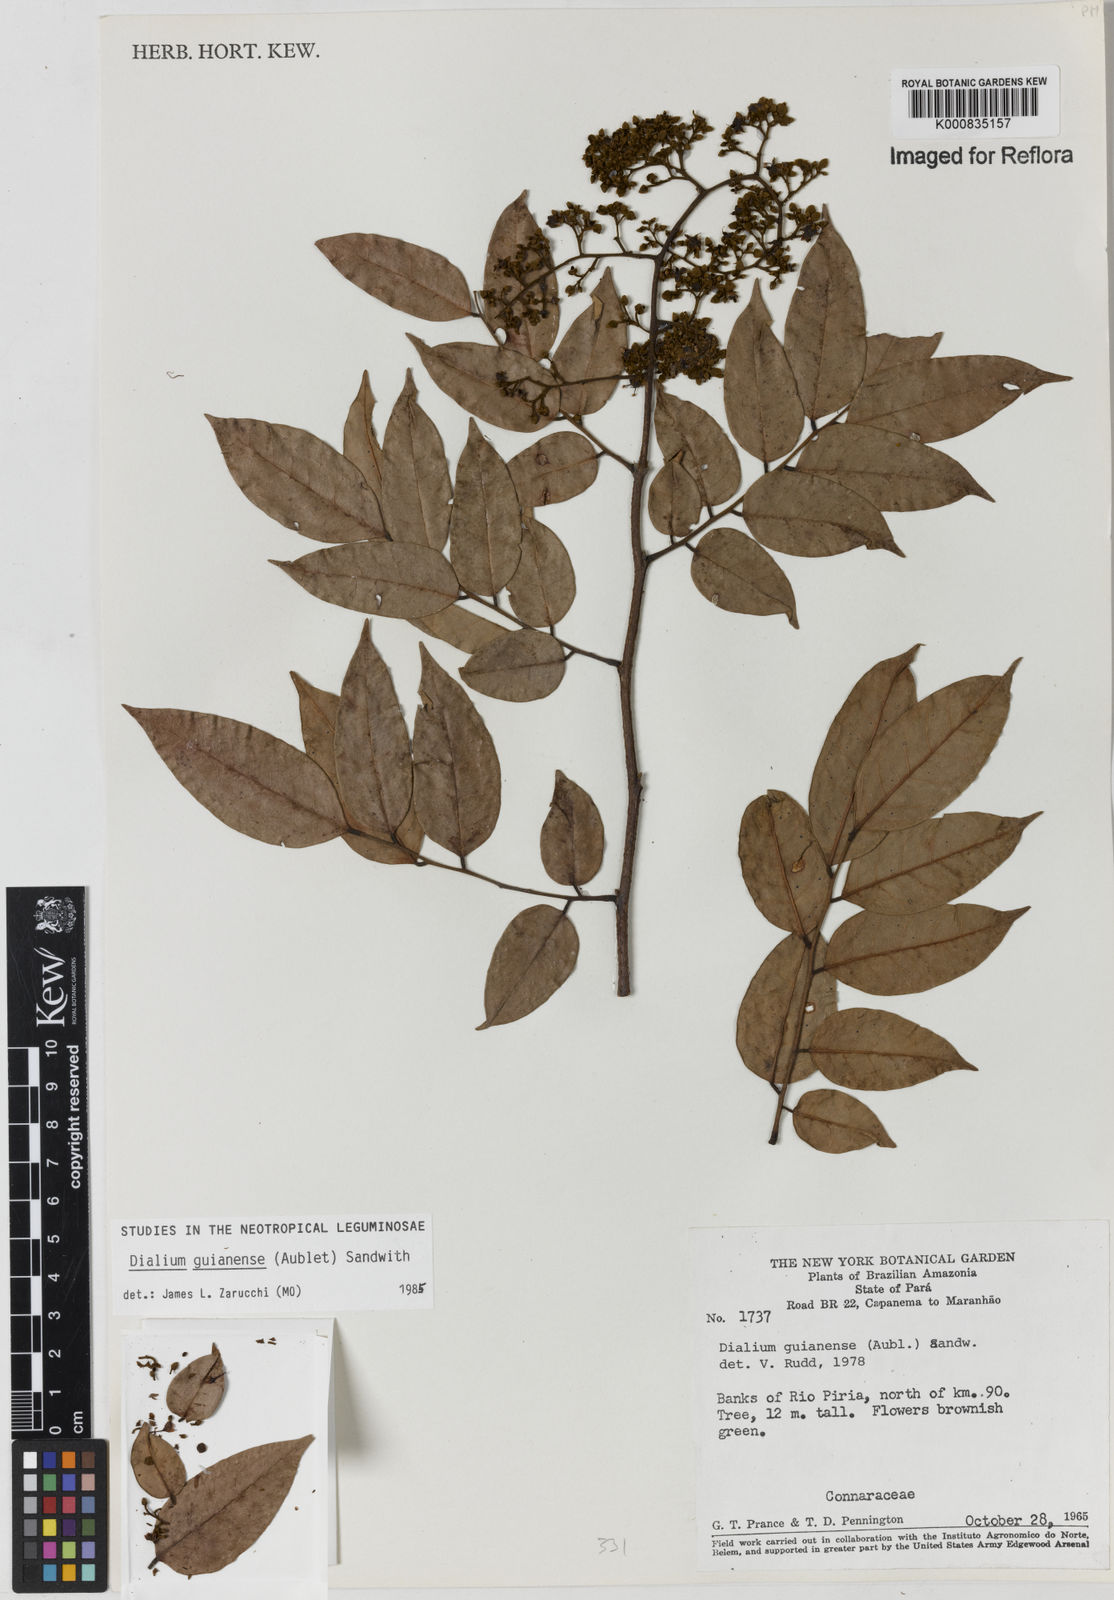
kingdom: Plantae
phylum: Tracheophyta
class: Magnoliopsida
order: Fabales
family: Fabaceae
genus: Dialium
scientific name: Dialium guianense
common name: Ironwood
